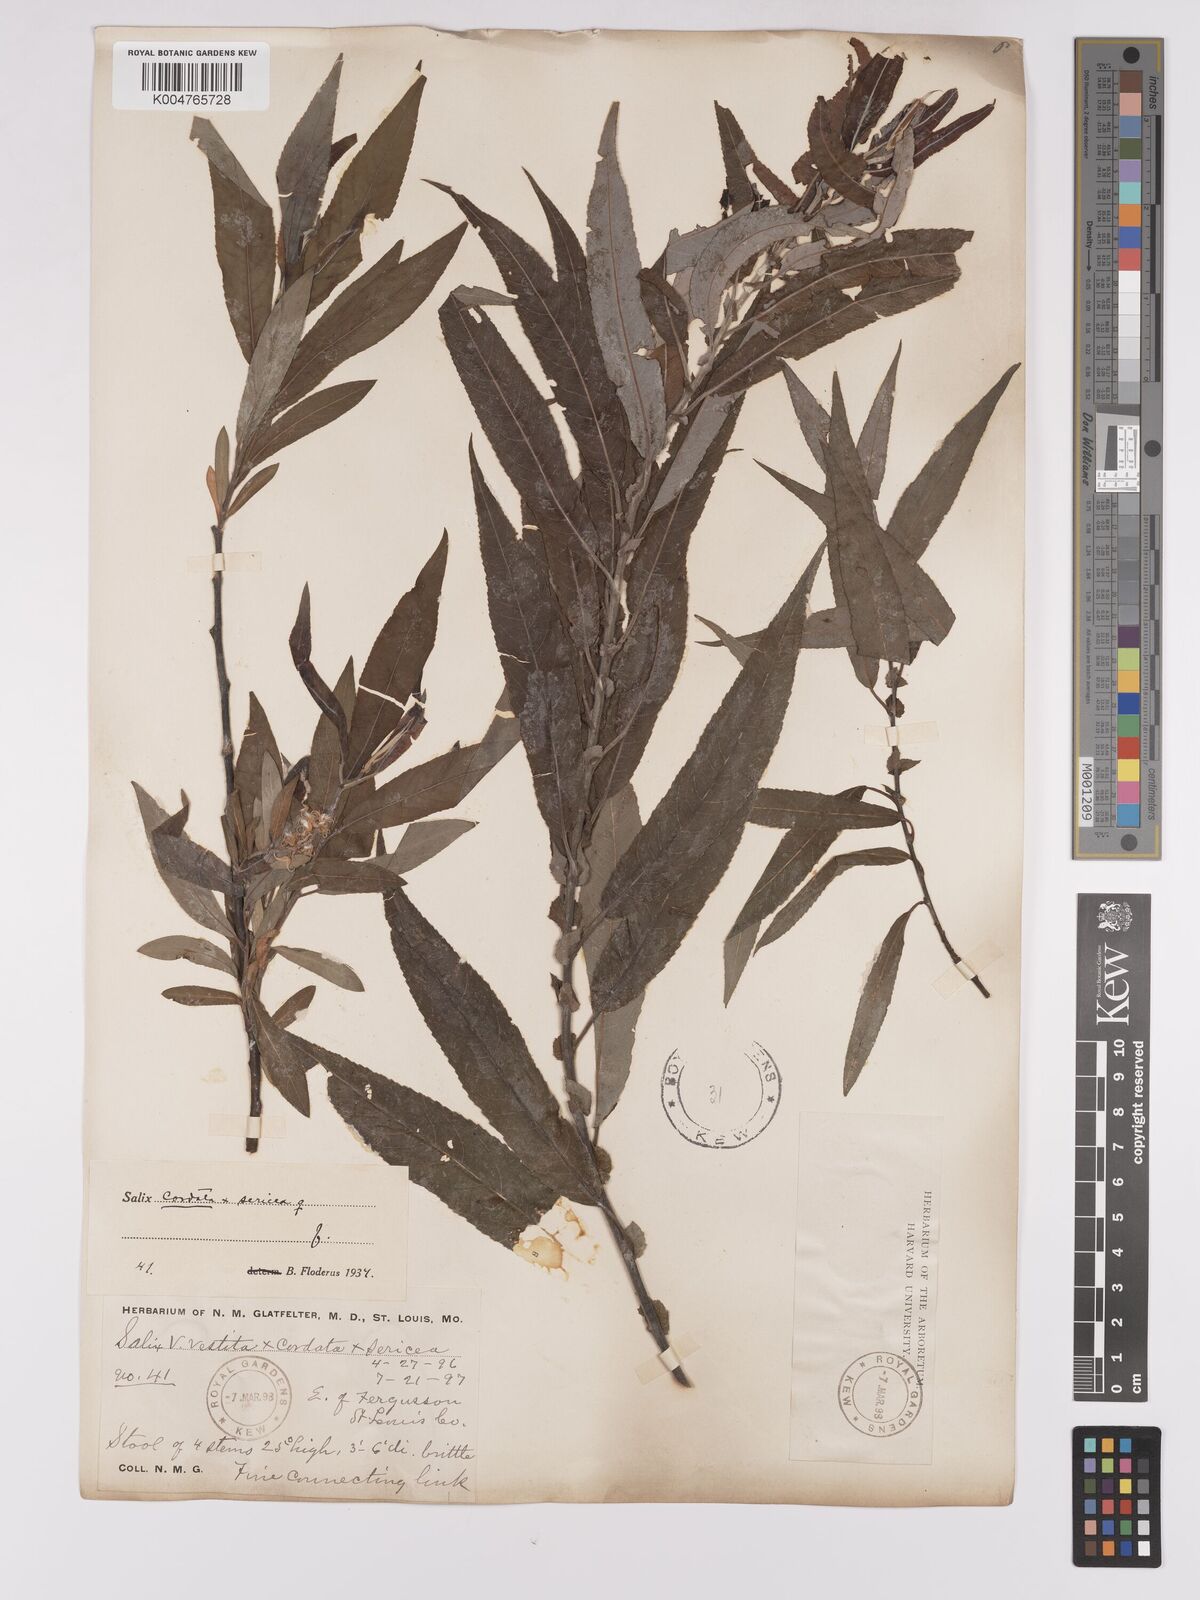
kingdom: Plantae
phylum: Tracheophyta
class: Magnoliopsida
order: Malpighiales
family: Salicaceae
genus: Salix
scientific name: Salix
